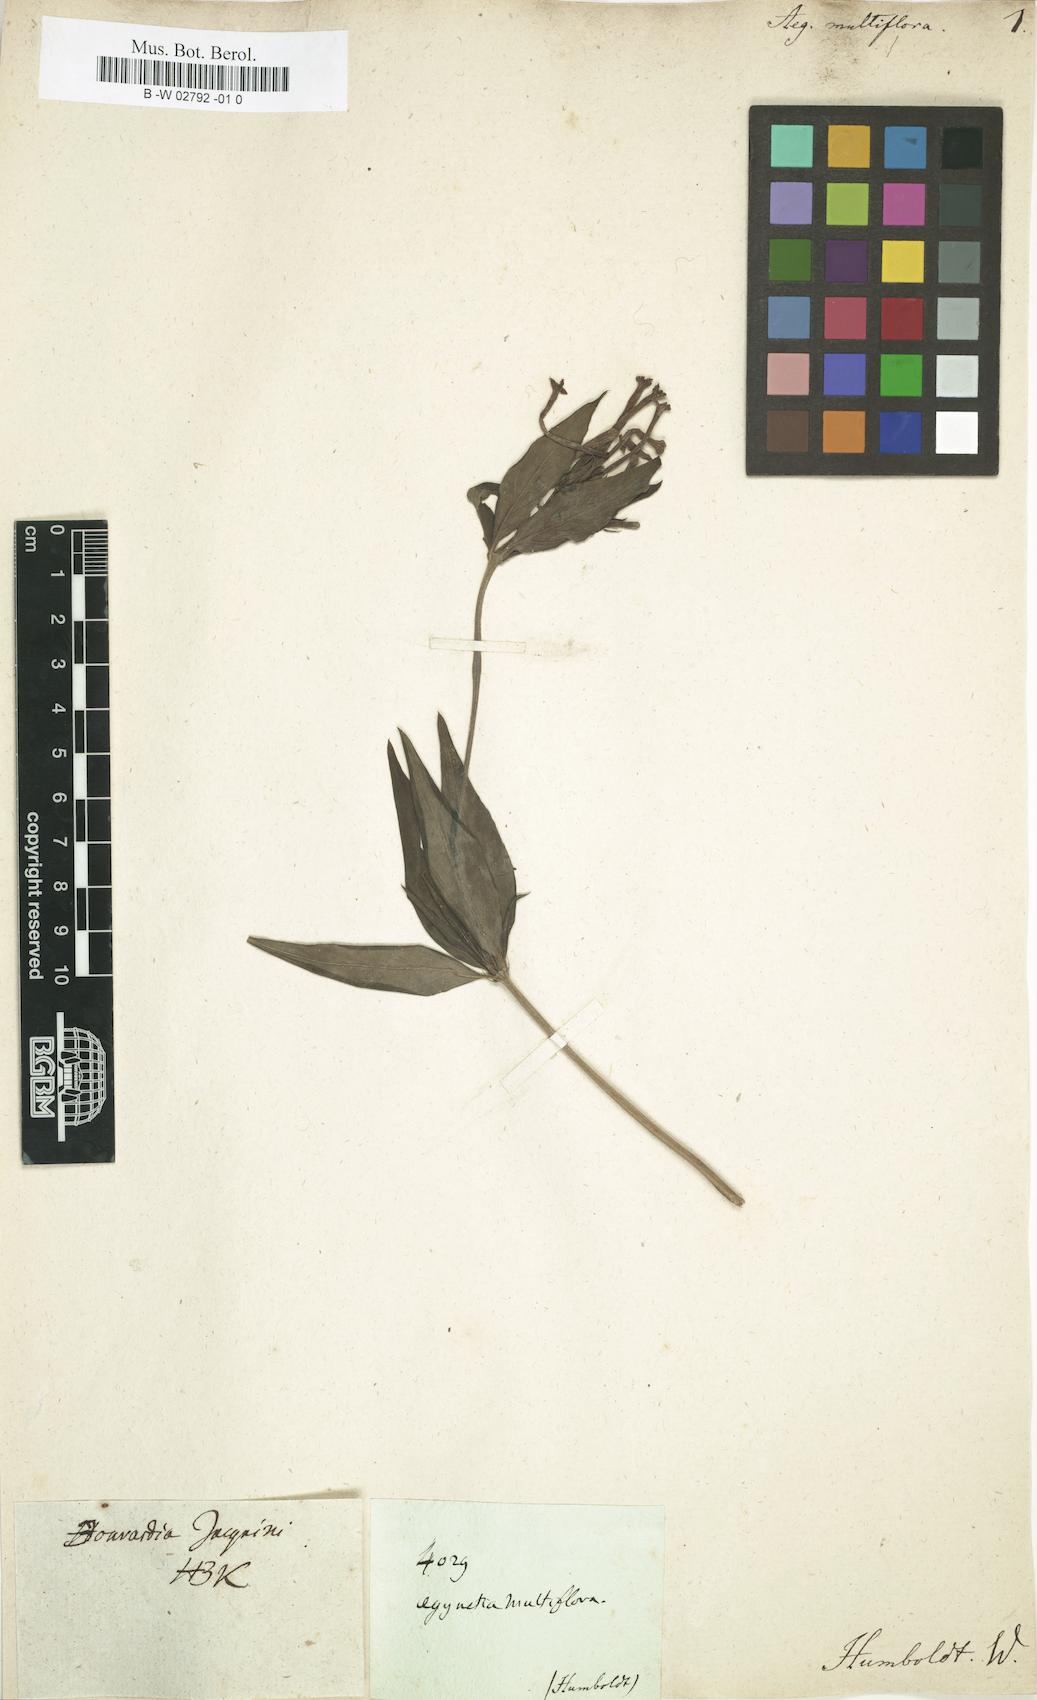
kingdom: Plantae
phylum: Tracheophyta
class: Magnoliopsida
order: Gentianales
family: Rubiaceae
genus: Bouvardia
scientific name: Bouvardia multiflora
